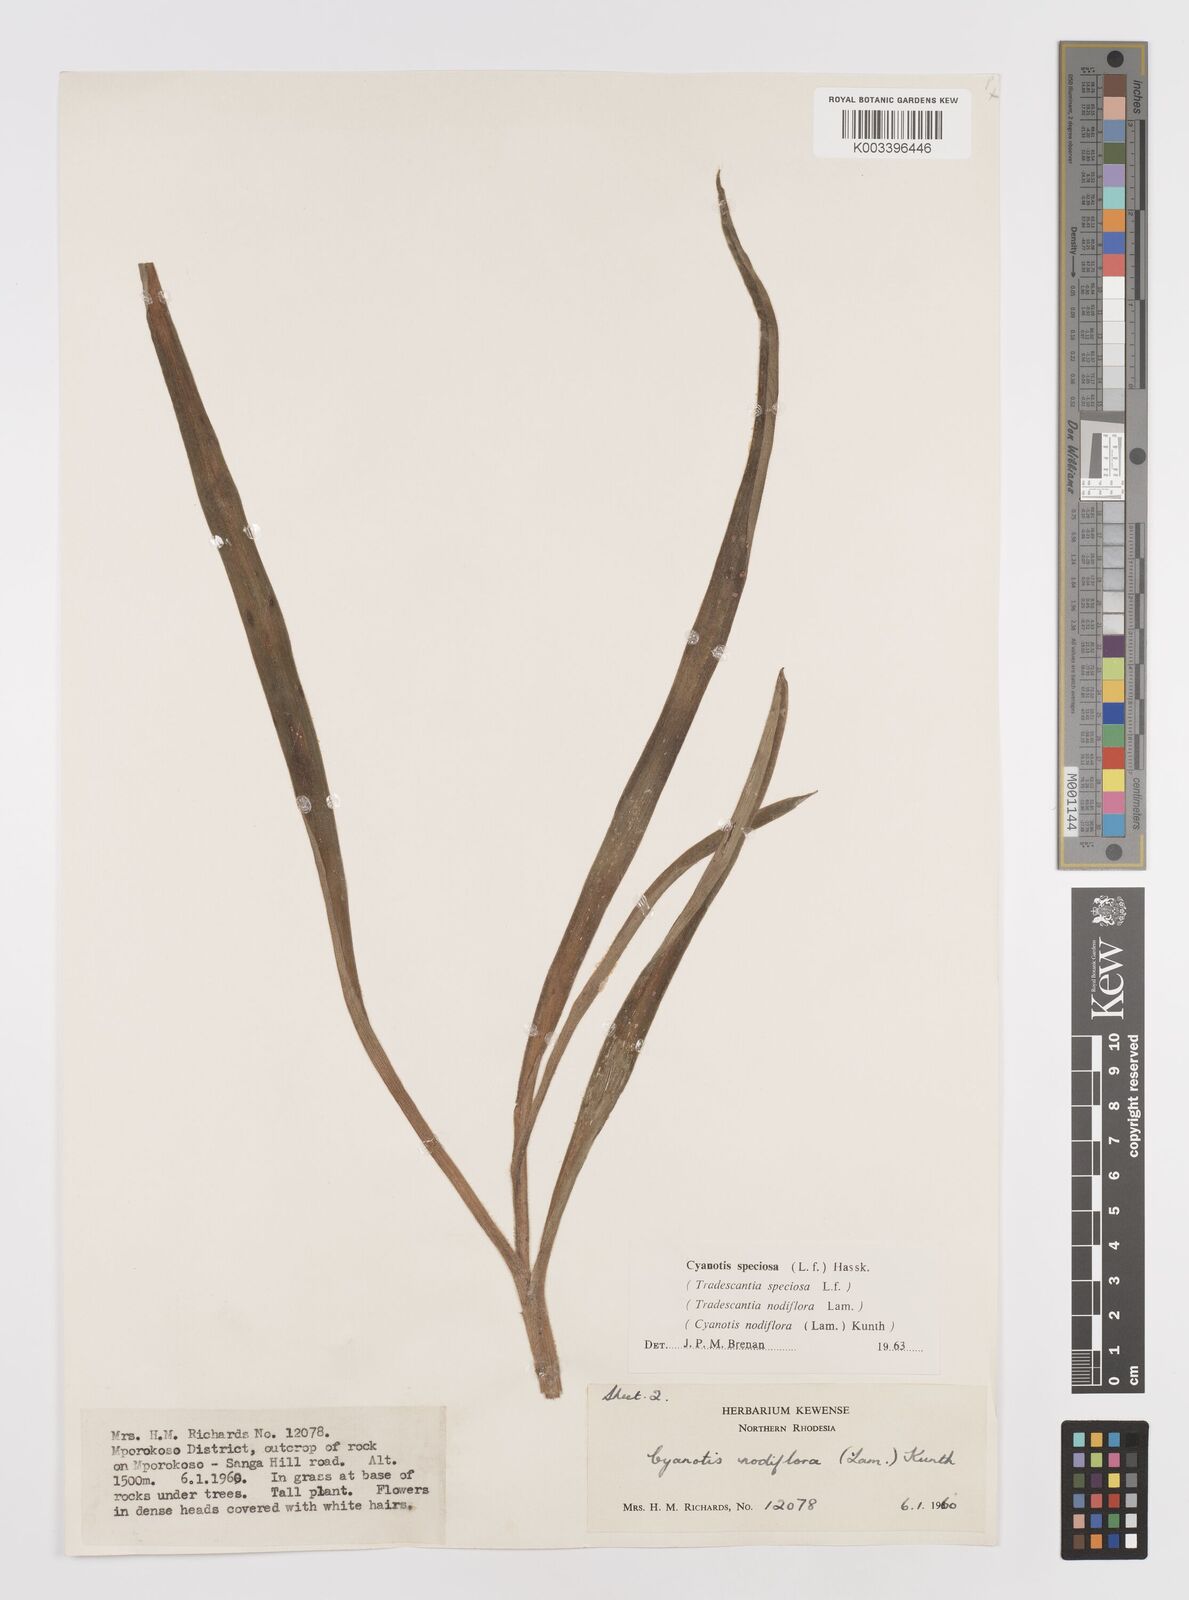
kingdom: Plantae
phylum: Tracheophyta
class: Liliopsida
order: Commelinales
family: Commelinaceae
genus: Cyanotis
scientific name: Cyanotis speciosa
